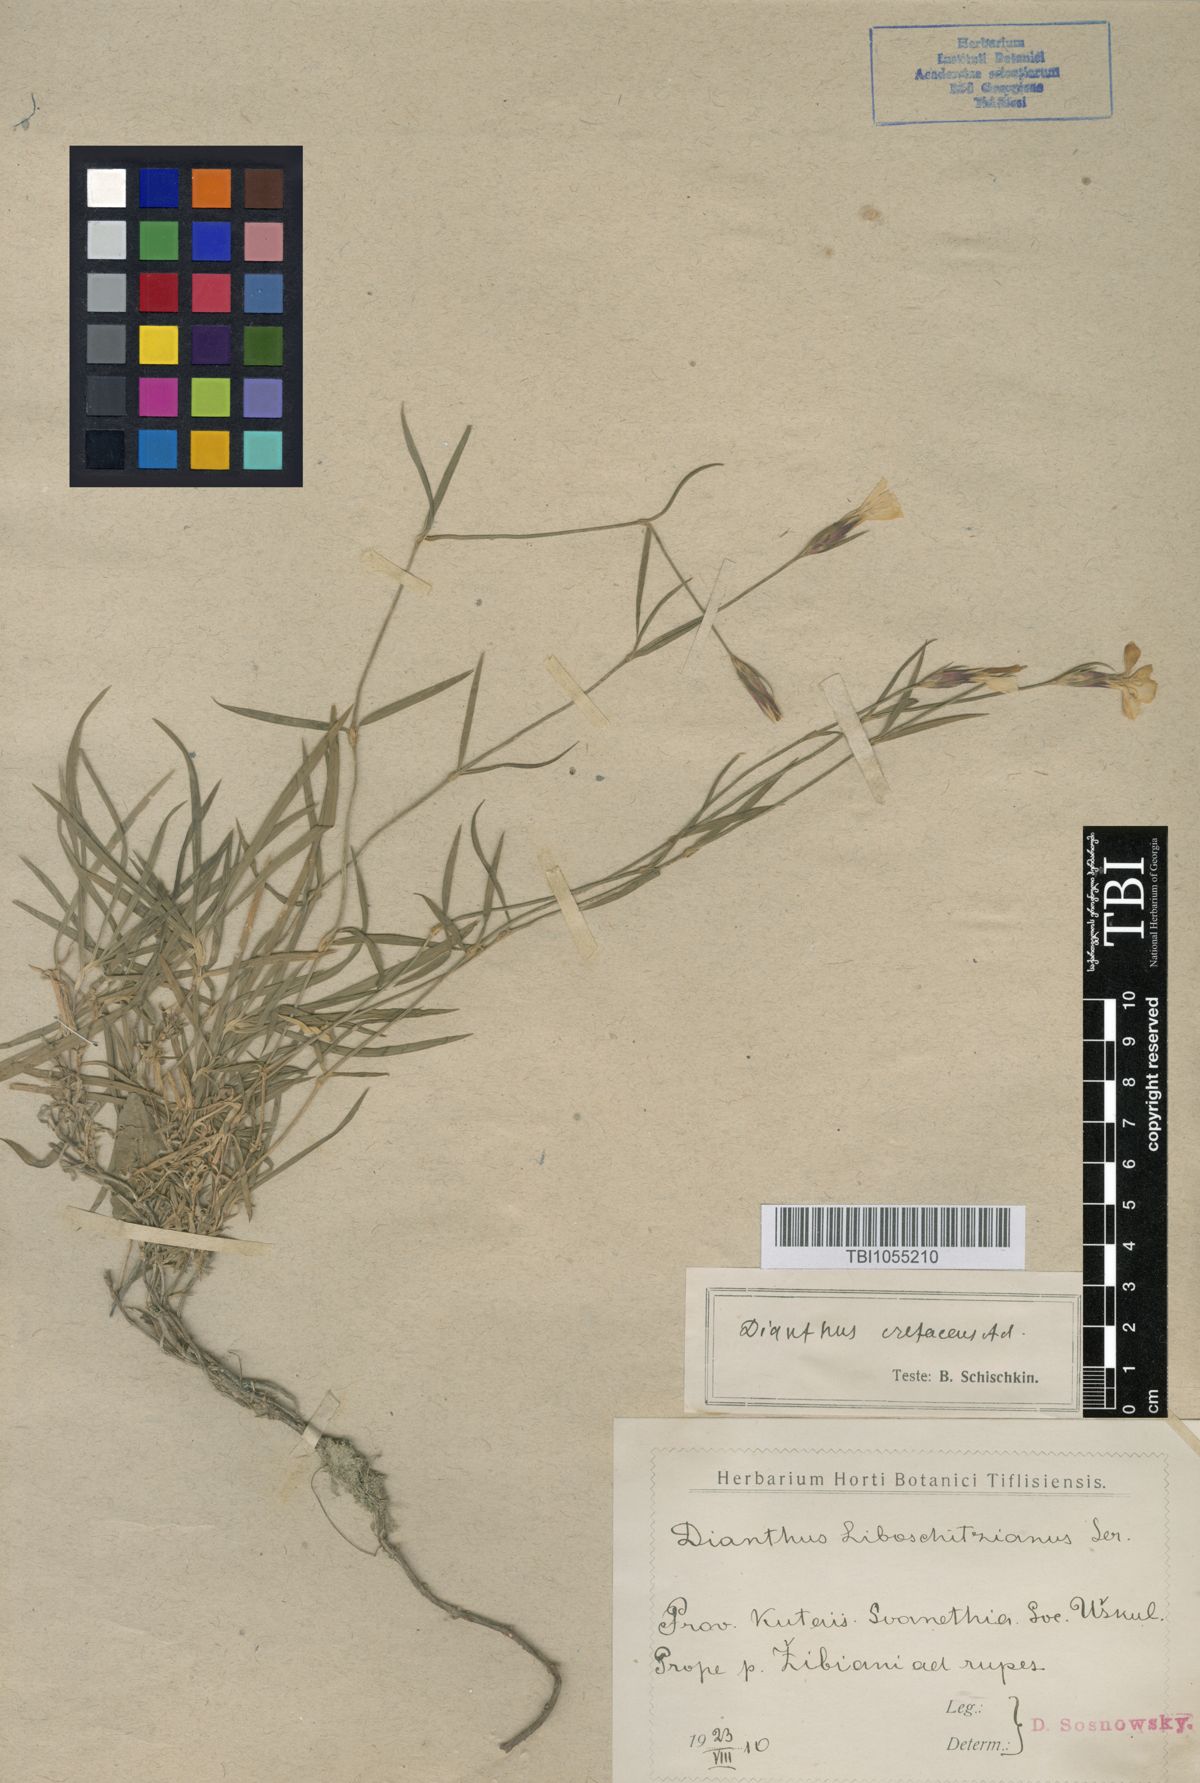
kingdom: Plantae
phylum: Tracheophyta
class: Magnoliopsida
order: Caryophyllales
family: Caryophyllaceae
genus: Dianthus
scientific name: Dianthus cretaceus
